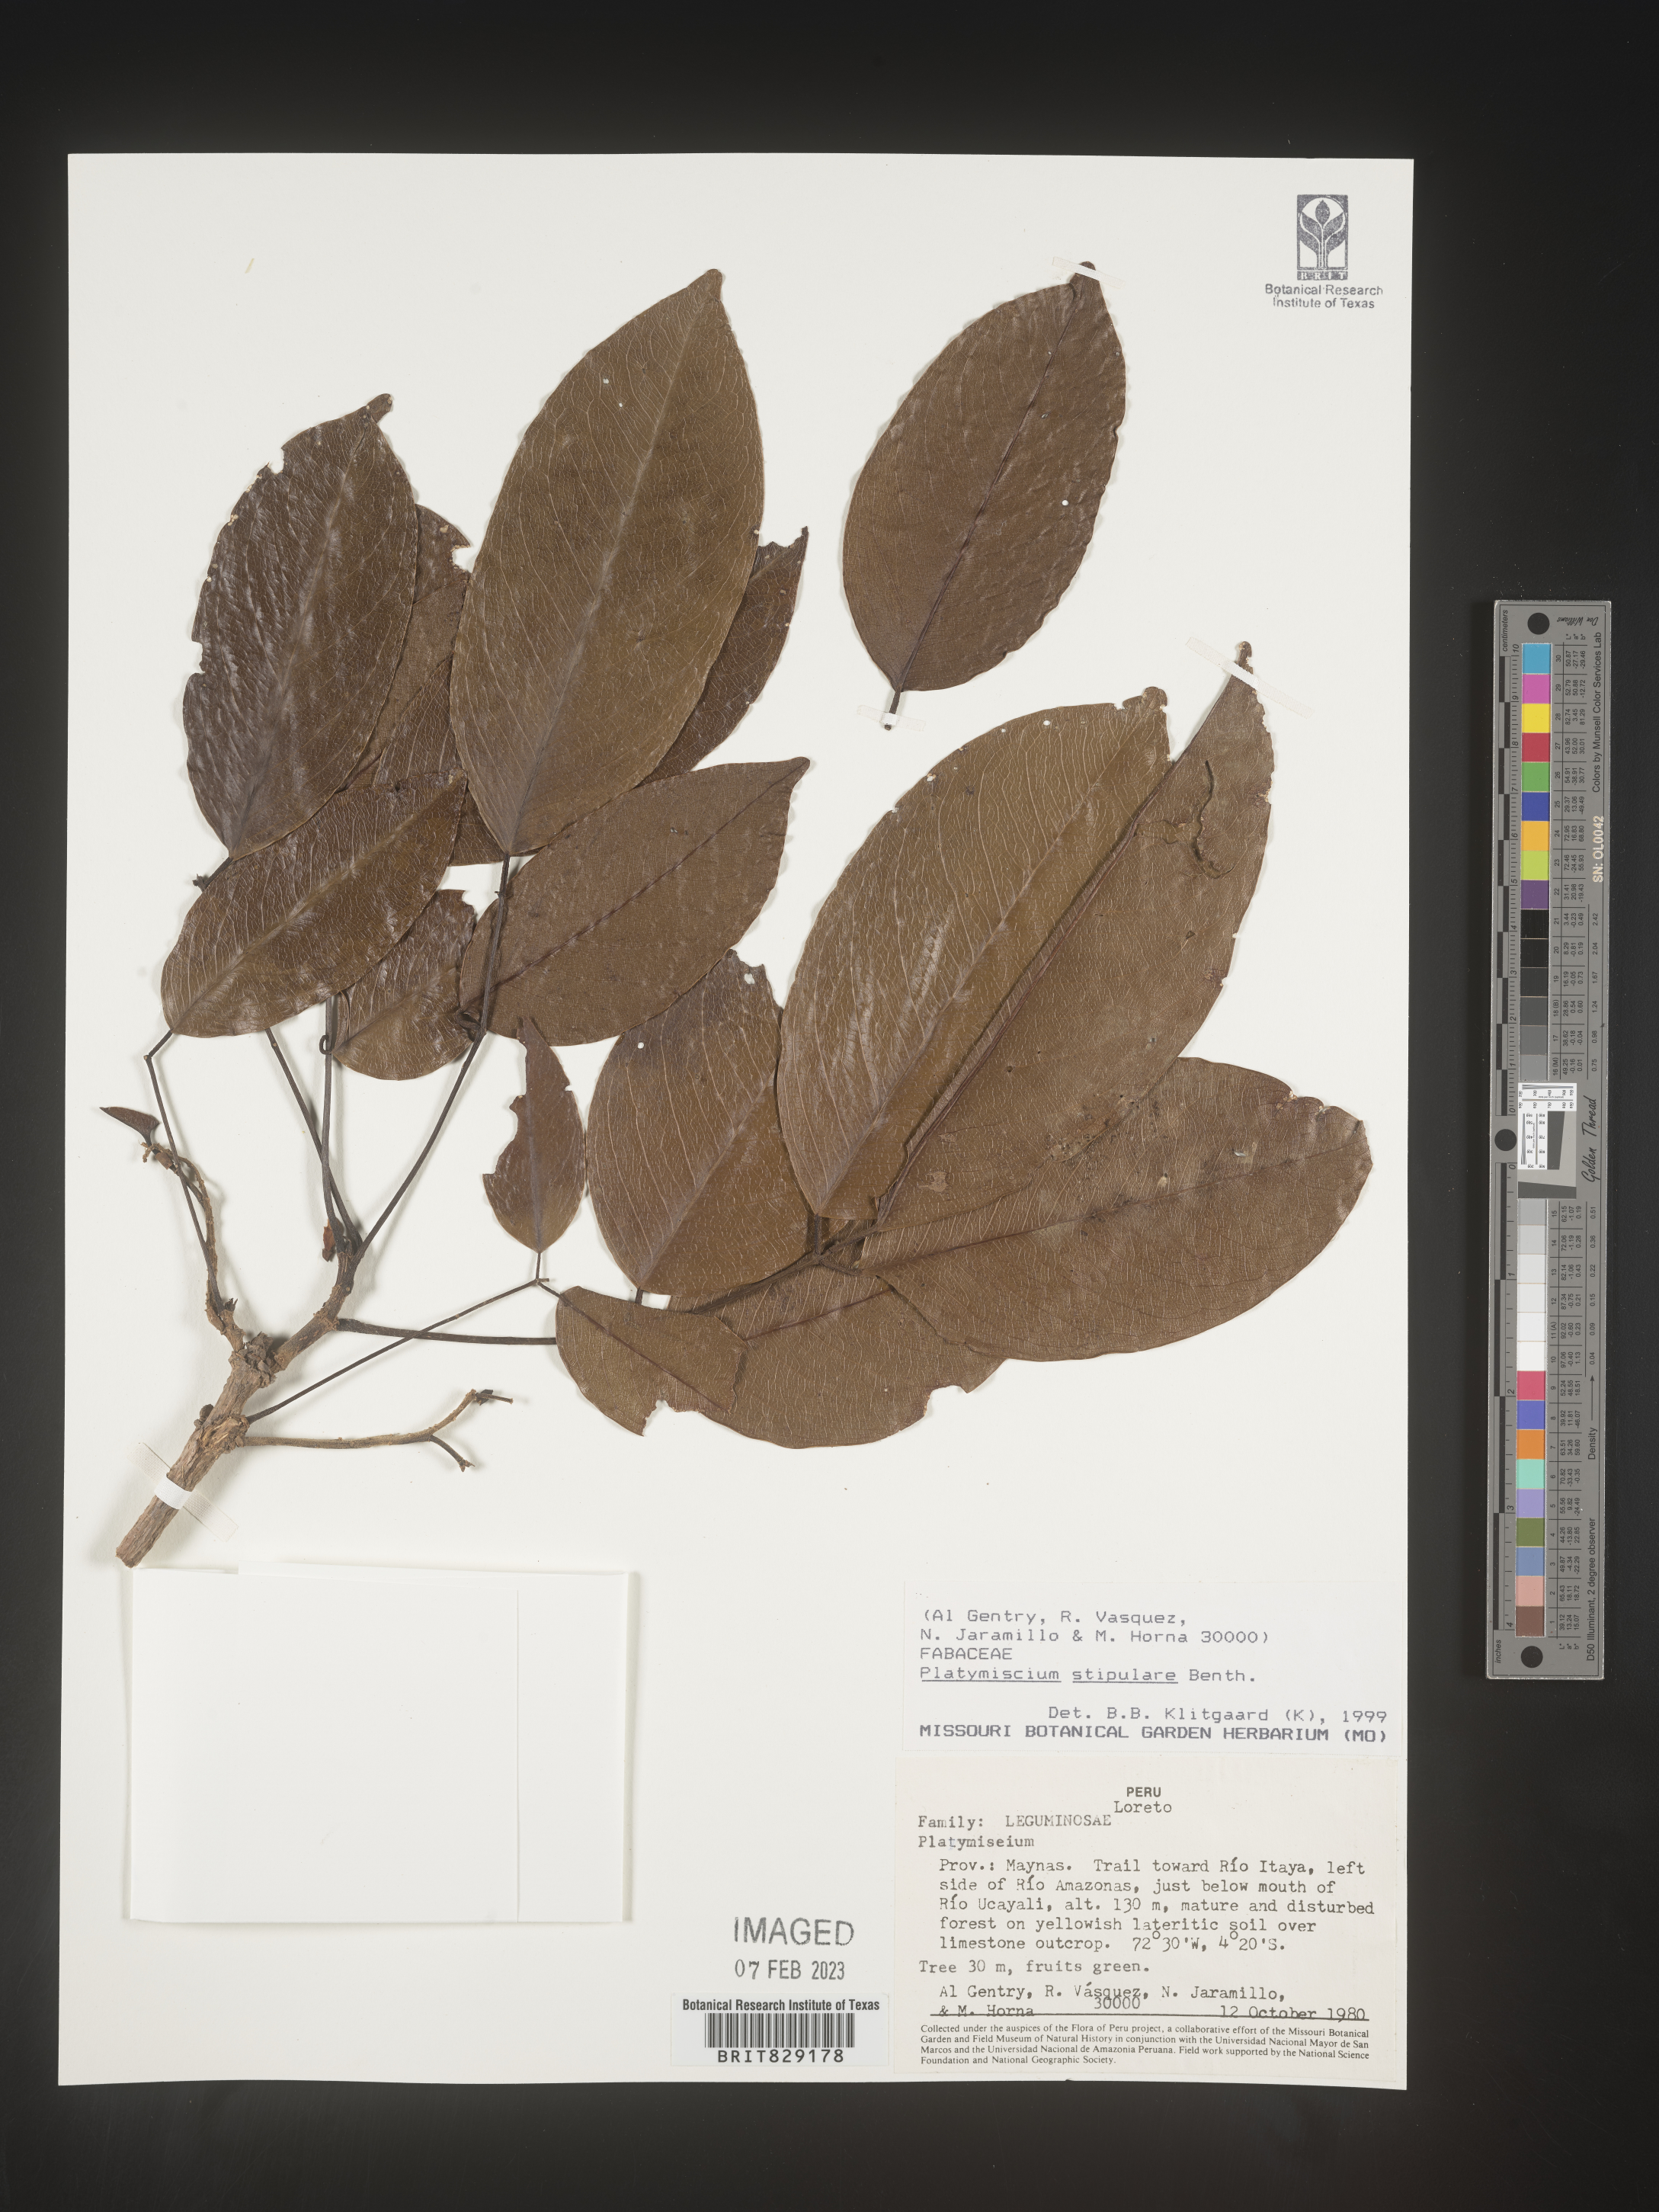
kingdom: Plantae
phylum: Tracheophyta
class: Magnoliopsida
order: Fabales
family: Fabaceae
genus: Platymiscium
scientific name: Platymiscium
